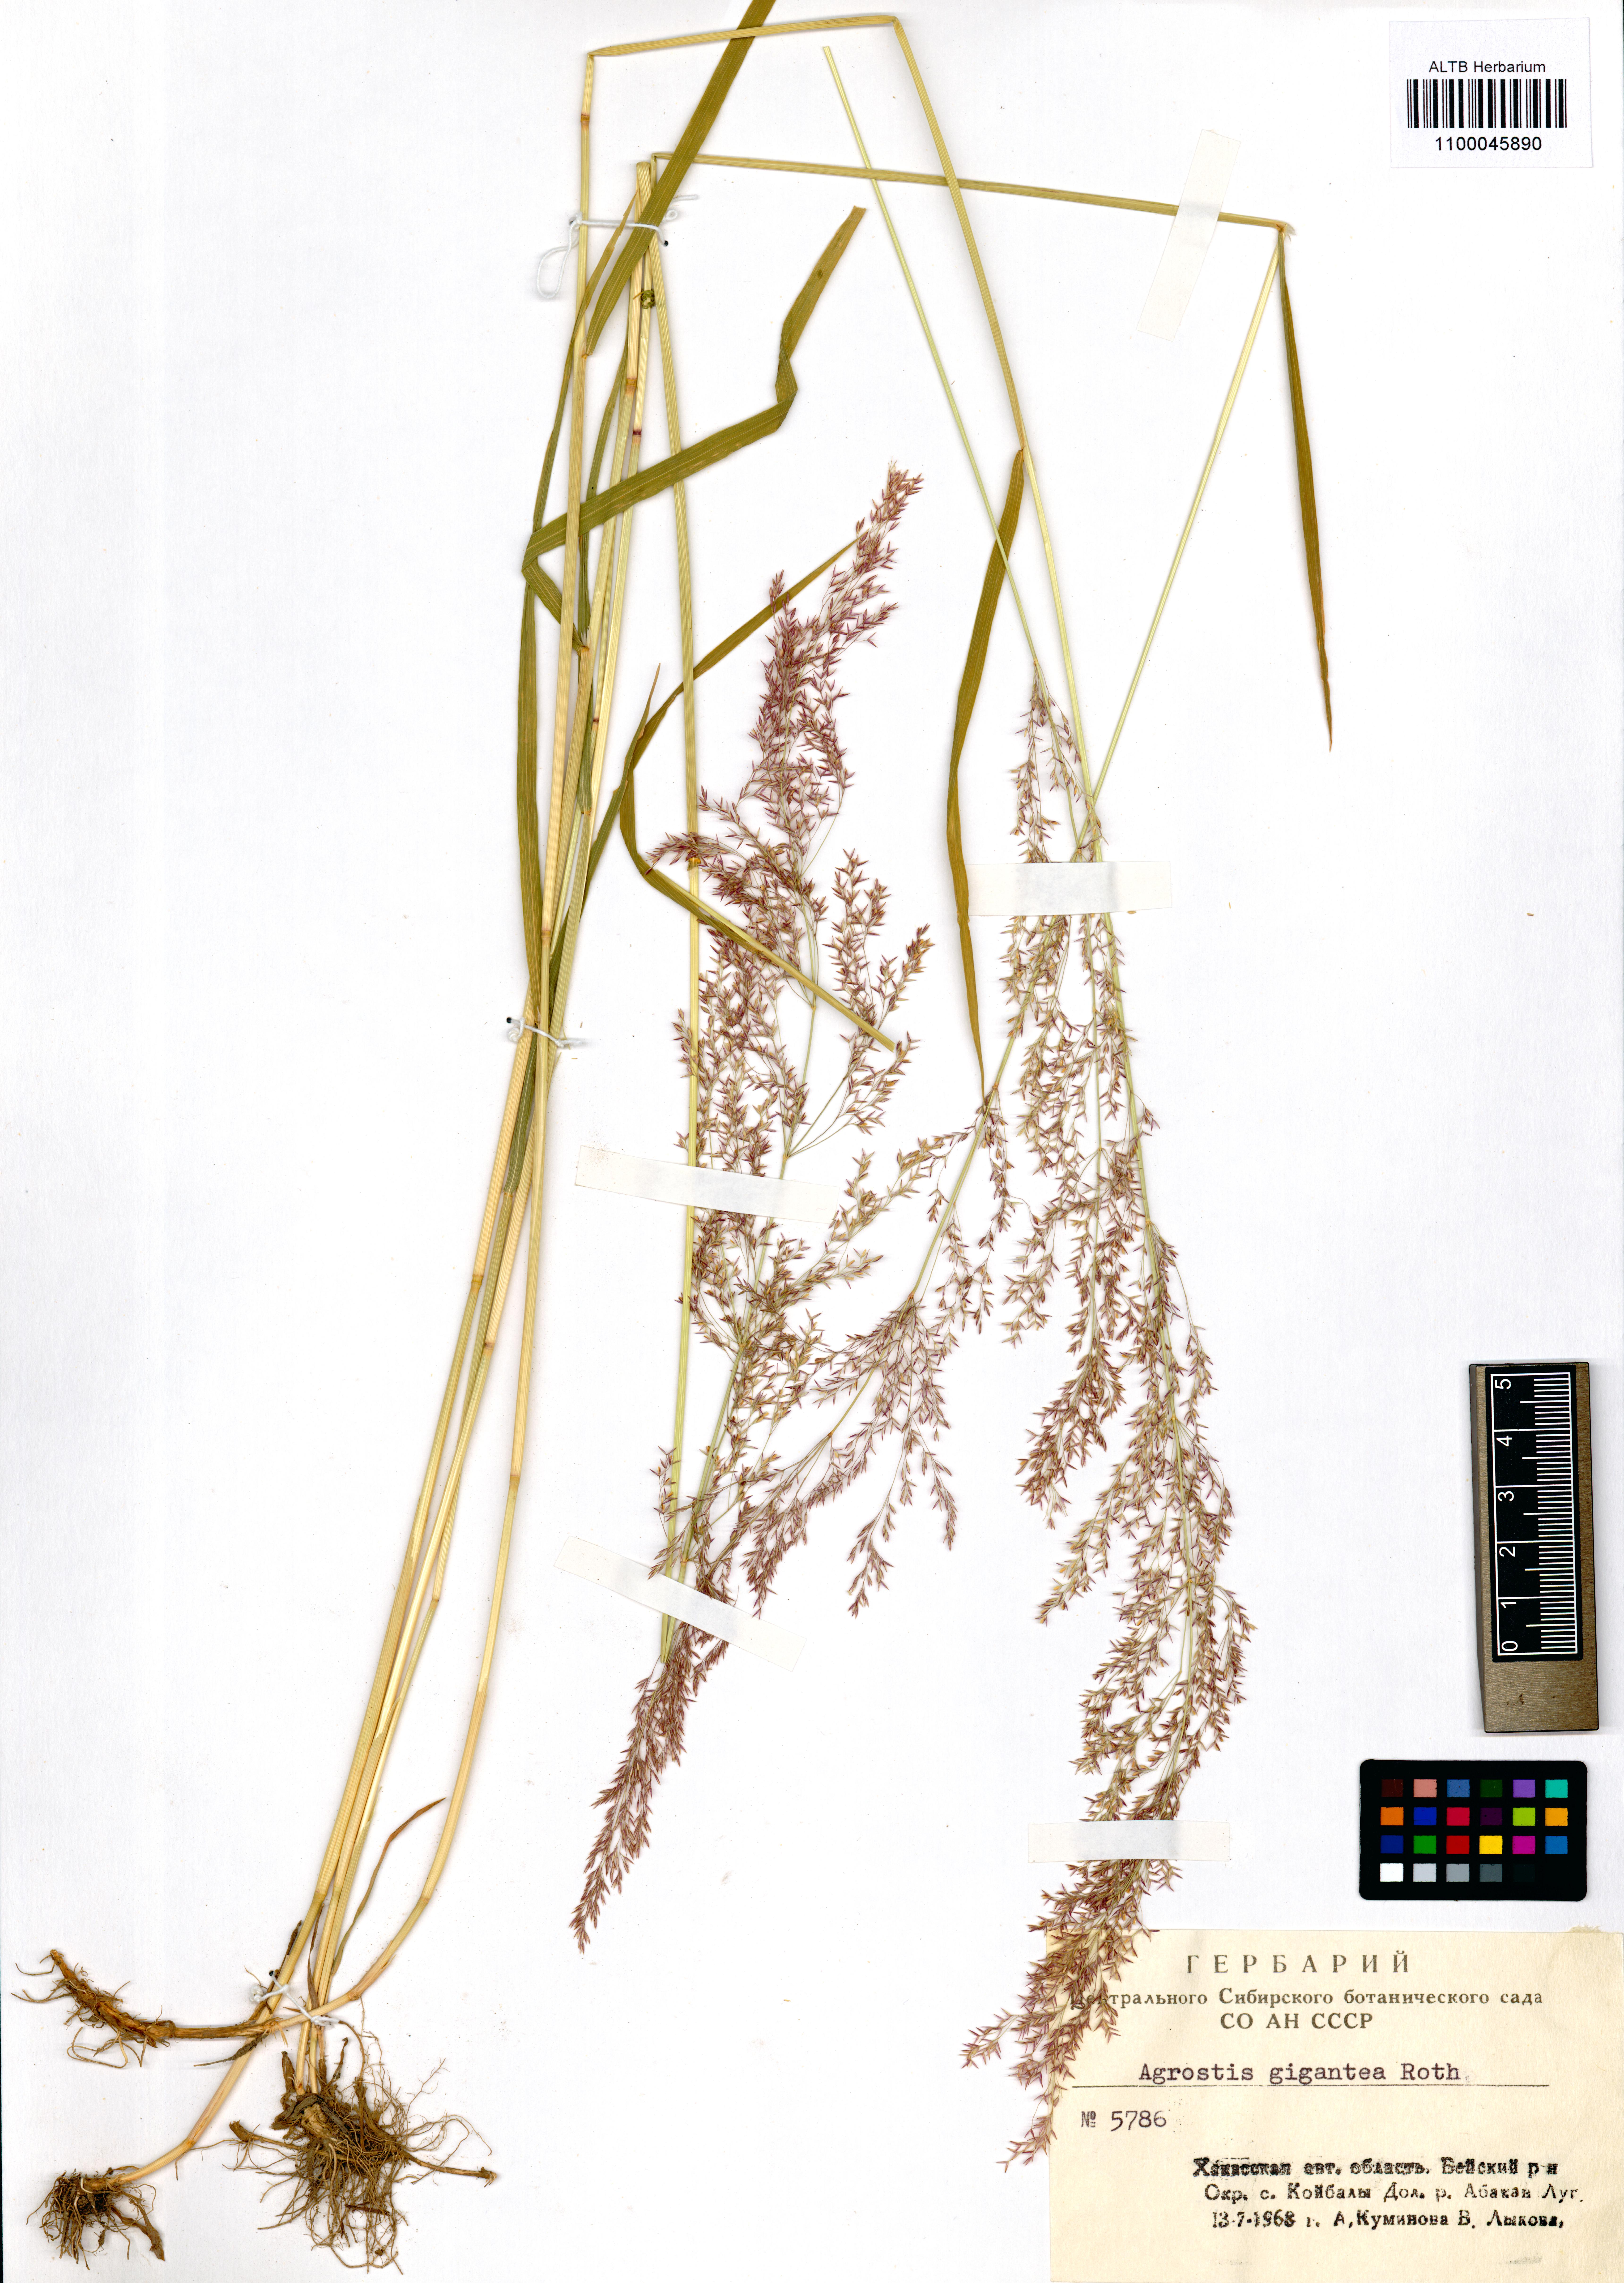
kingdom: Plantae
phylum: Tracheophyta
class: Liliopsida
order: Poales
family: Poaceae
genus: Agrostis
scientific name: Agrostis gigantea
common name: Black bent
